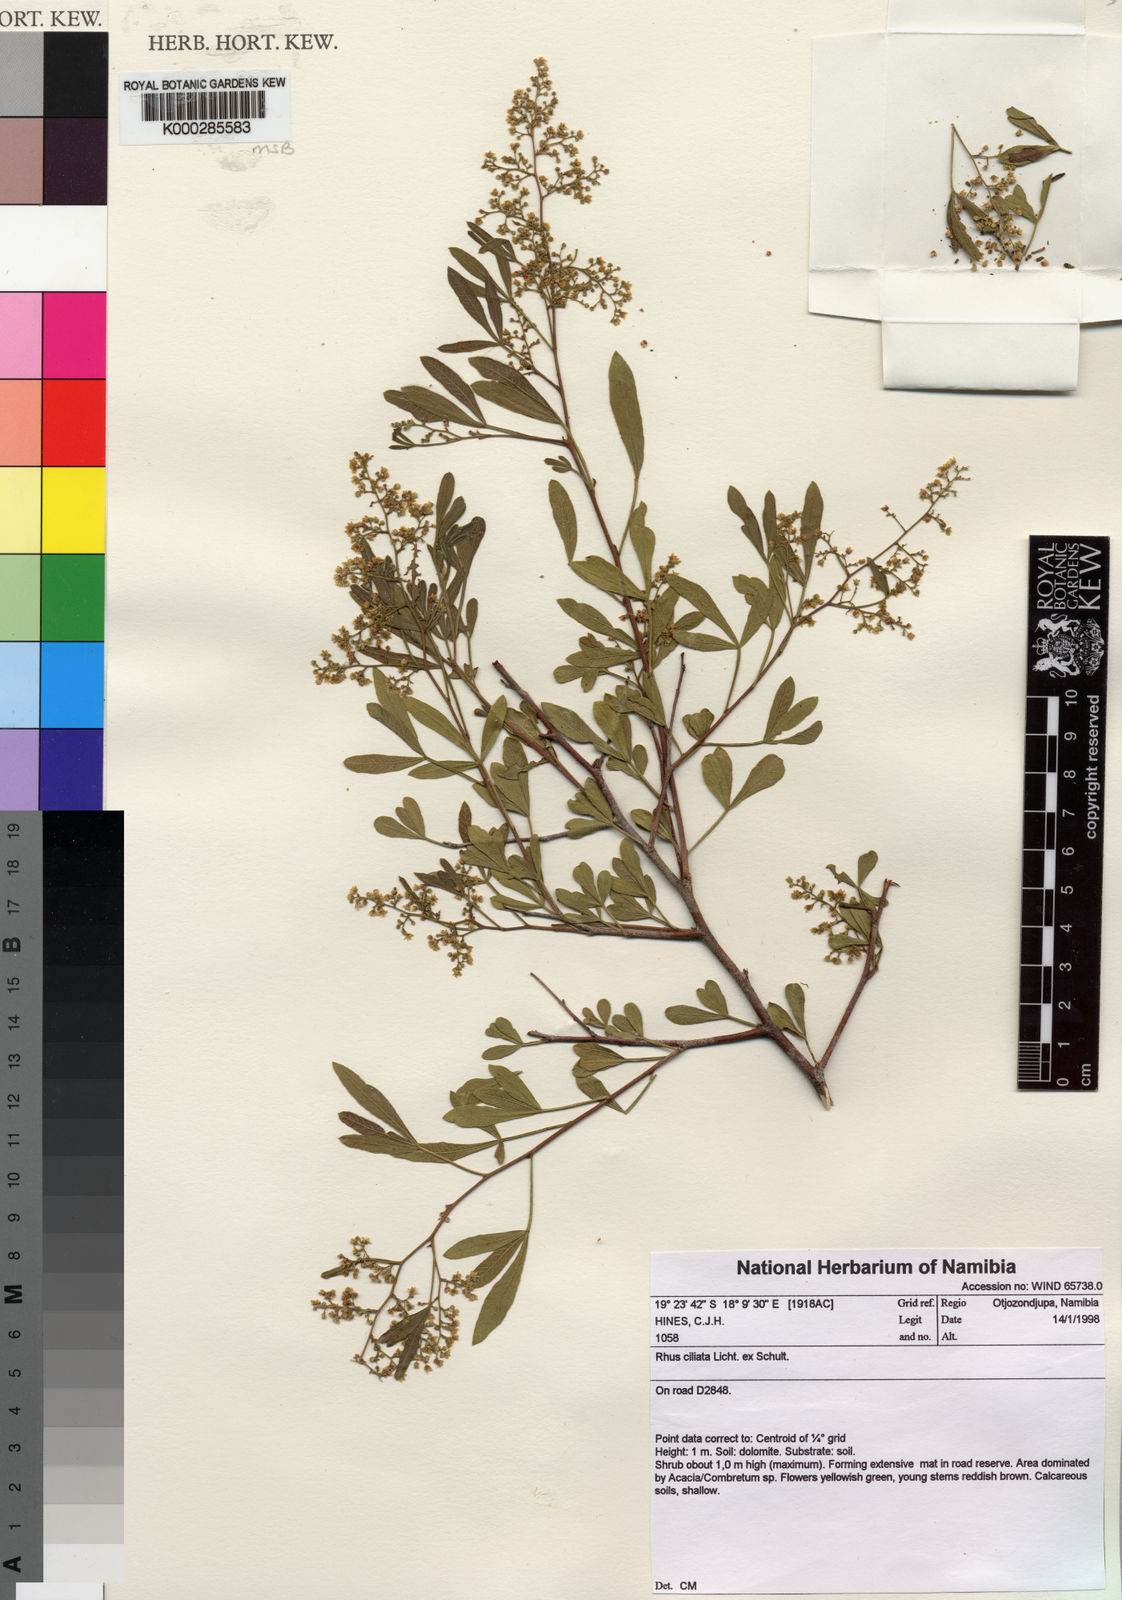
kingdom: Plantae
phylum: Tracheophyta
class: Magnoliopsida
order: Sapindales
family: Anacardiaceae
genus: Searsia
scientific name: Searsia ciliata
